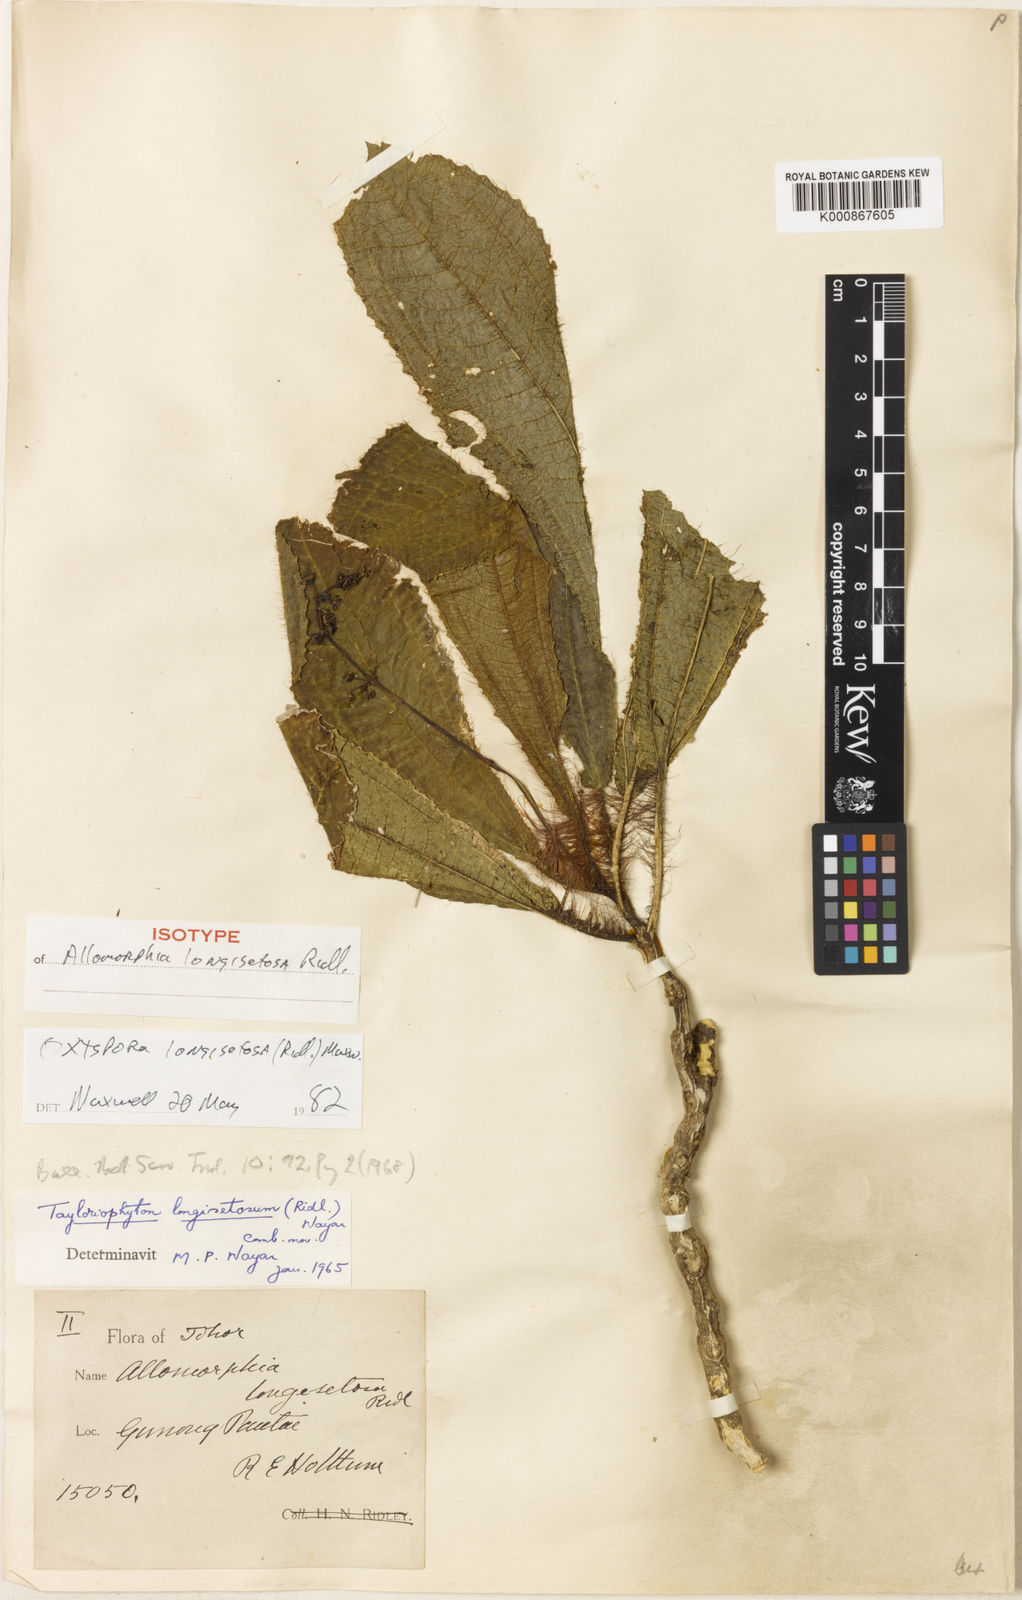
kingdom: Plantae
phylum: Tracheophyta
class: Magnoliopsida
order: Myrtales
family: Melastomataceae
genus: Tayloriophyton
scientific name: Tayloriophyton longisetosum
